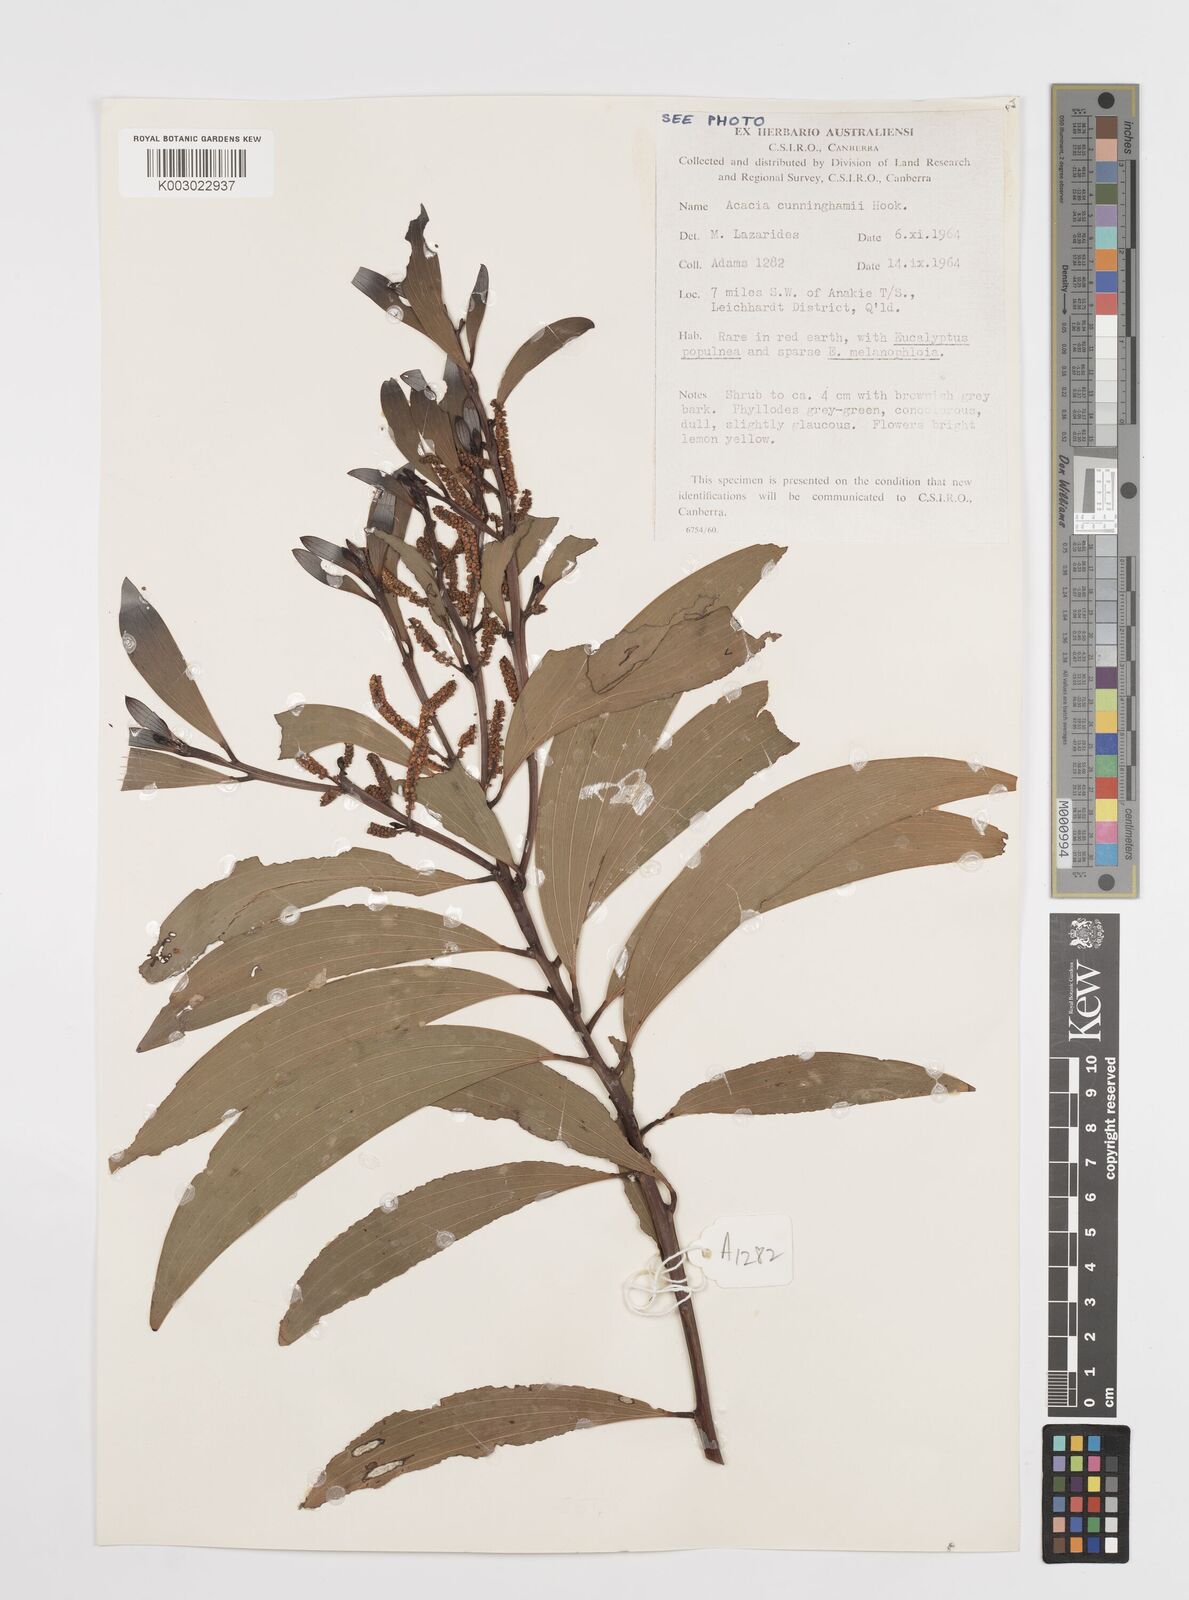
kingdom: Plantae
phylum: Tracheophyta
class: Magnoliopsida
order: Fabales
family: Fabaceae
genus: Acacia
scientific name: Acacia longispicata
